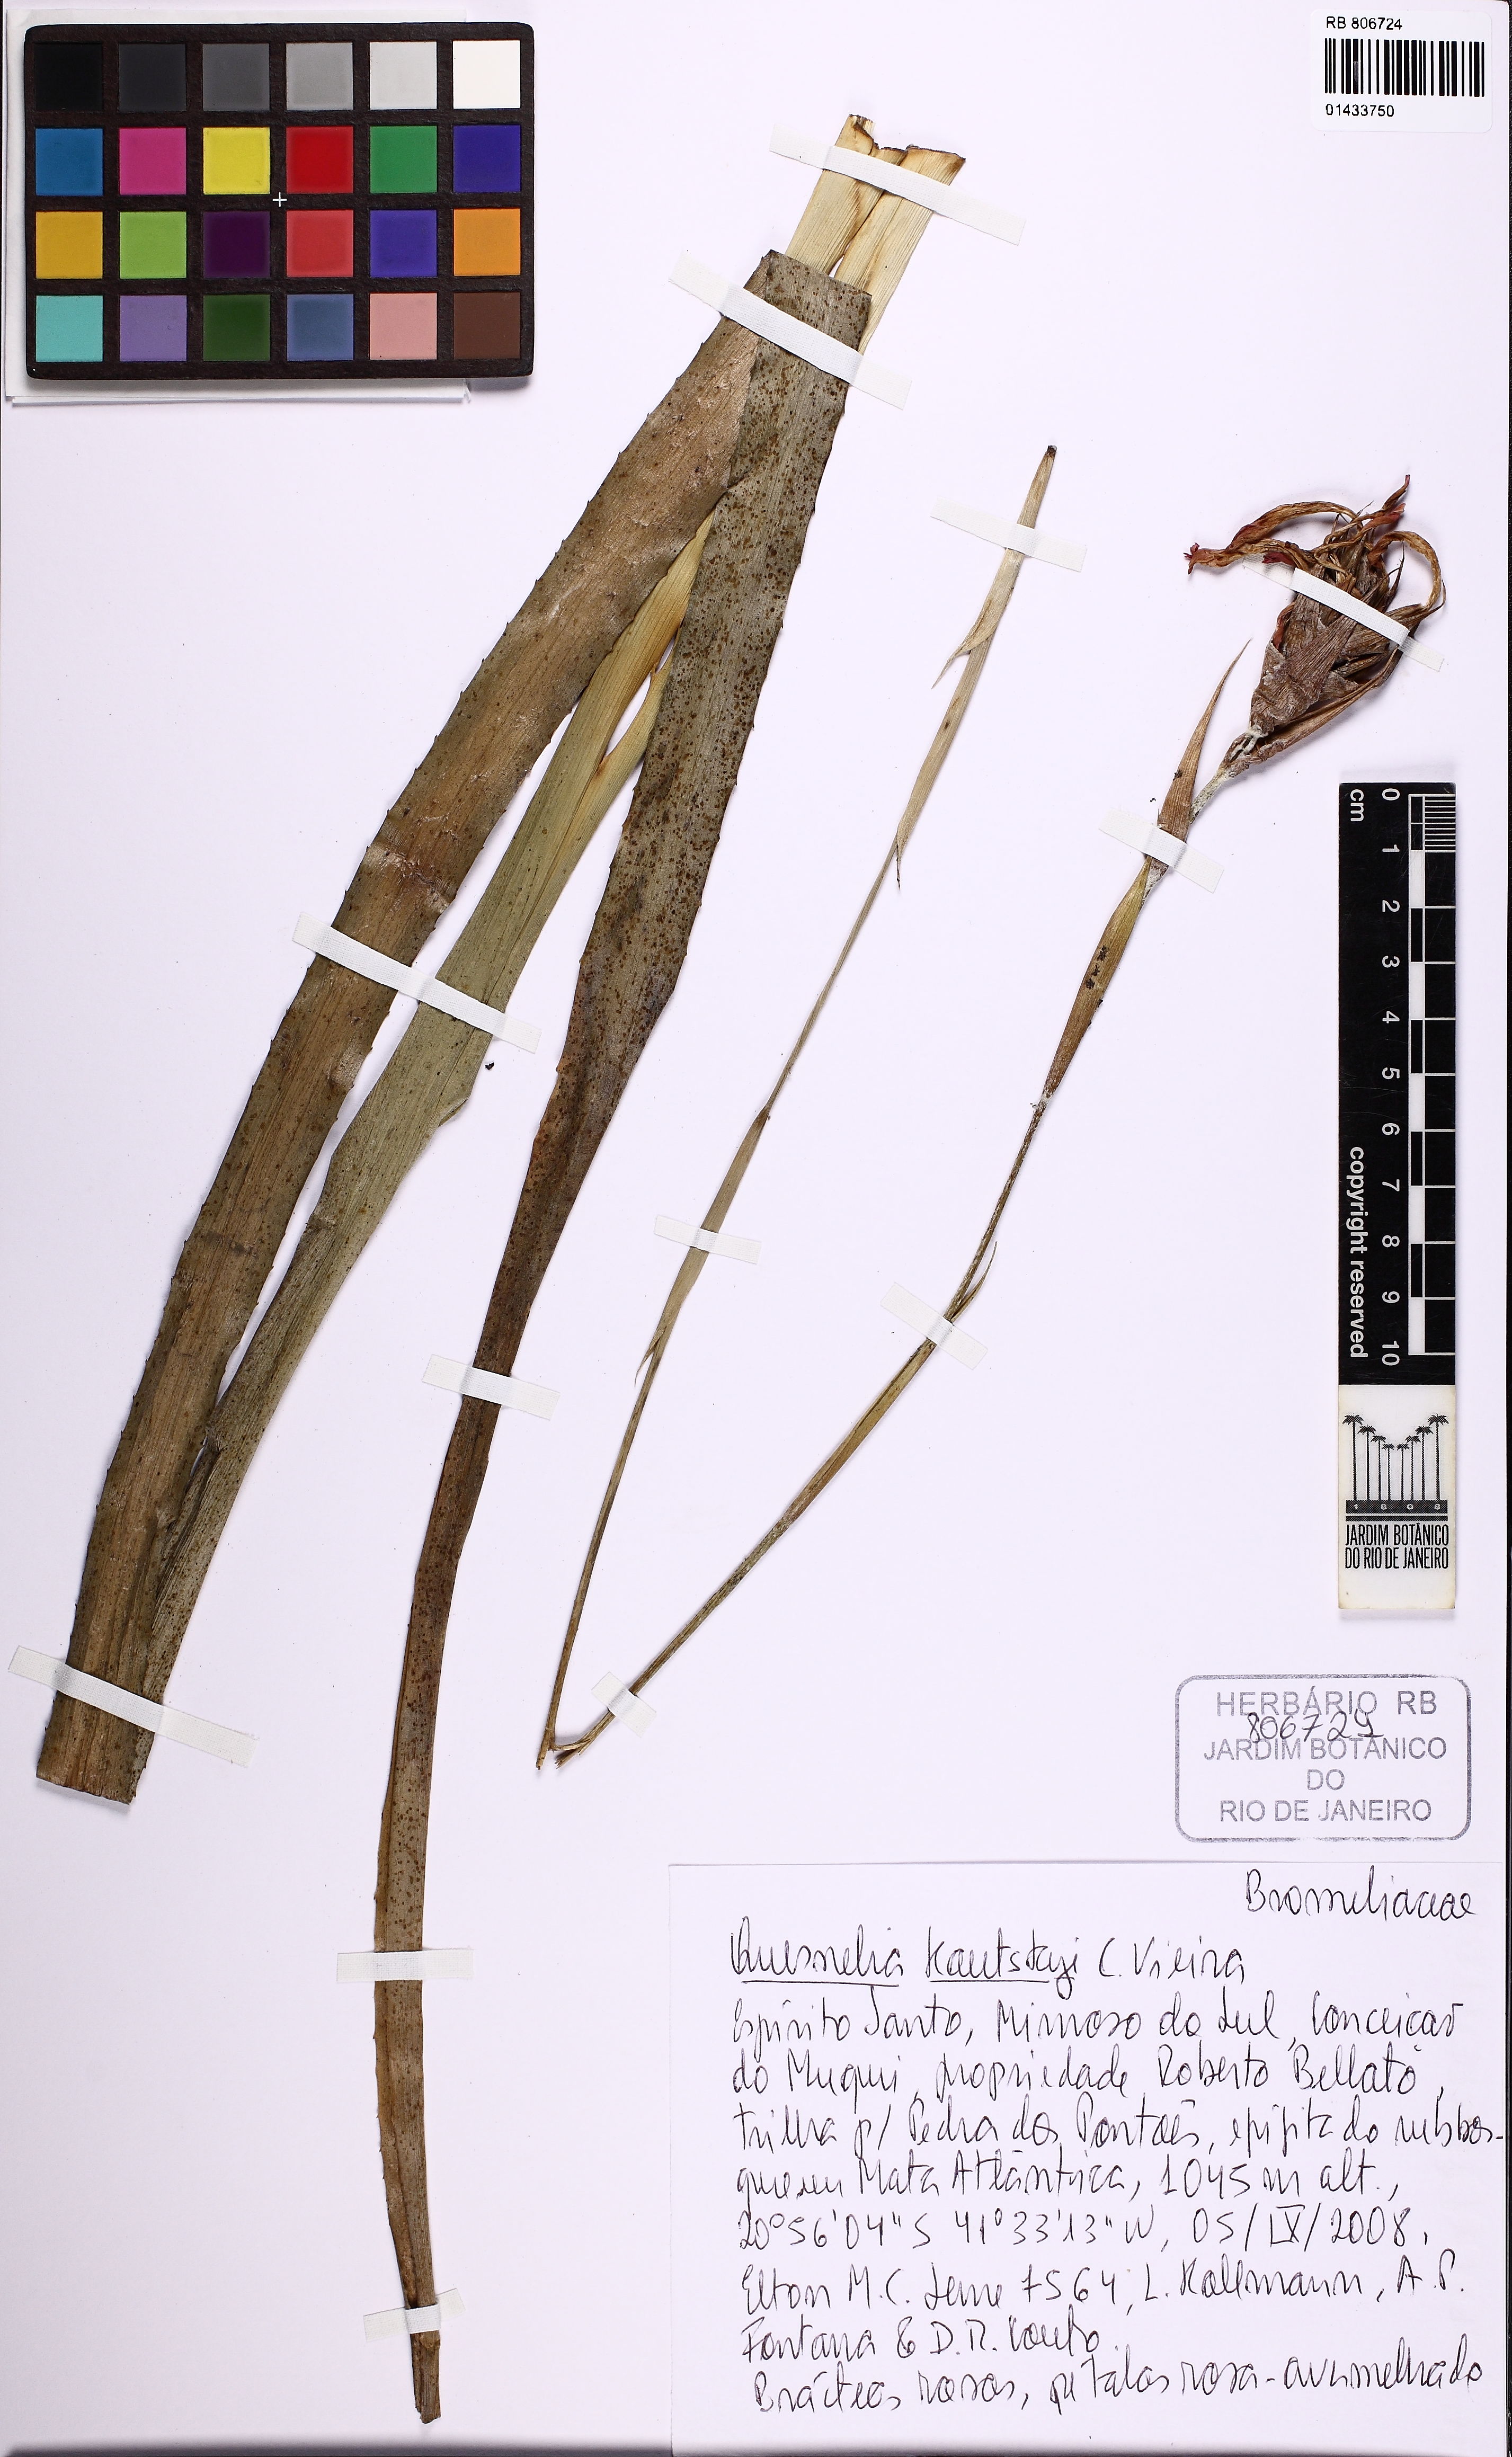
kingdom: Plantae
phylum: Tracheophyta
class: Liliopsida
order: Poales
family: Bromeliaceae
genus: Quesnelia
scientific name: Quesnelia kautskyi
